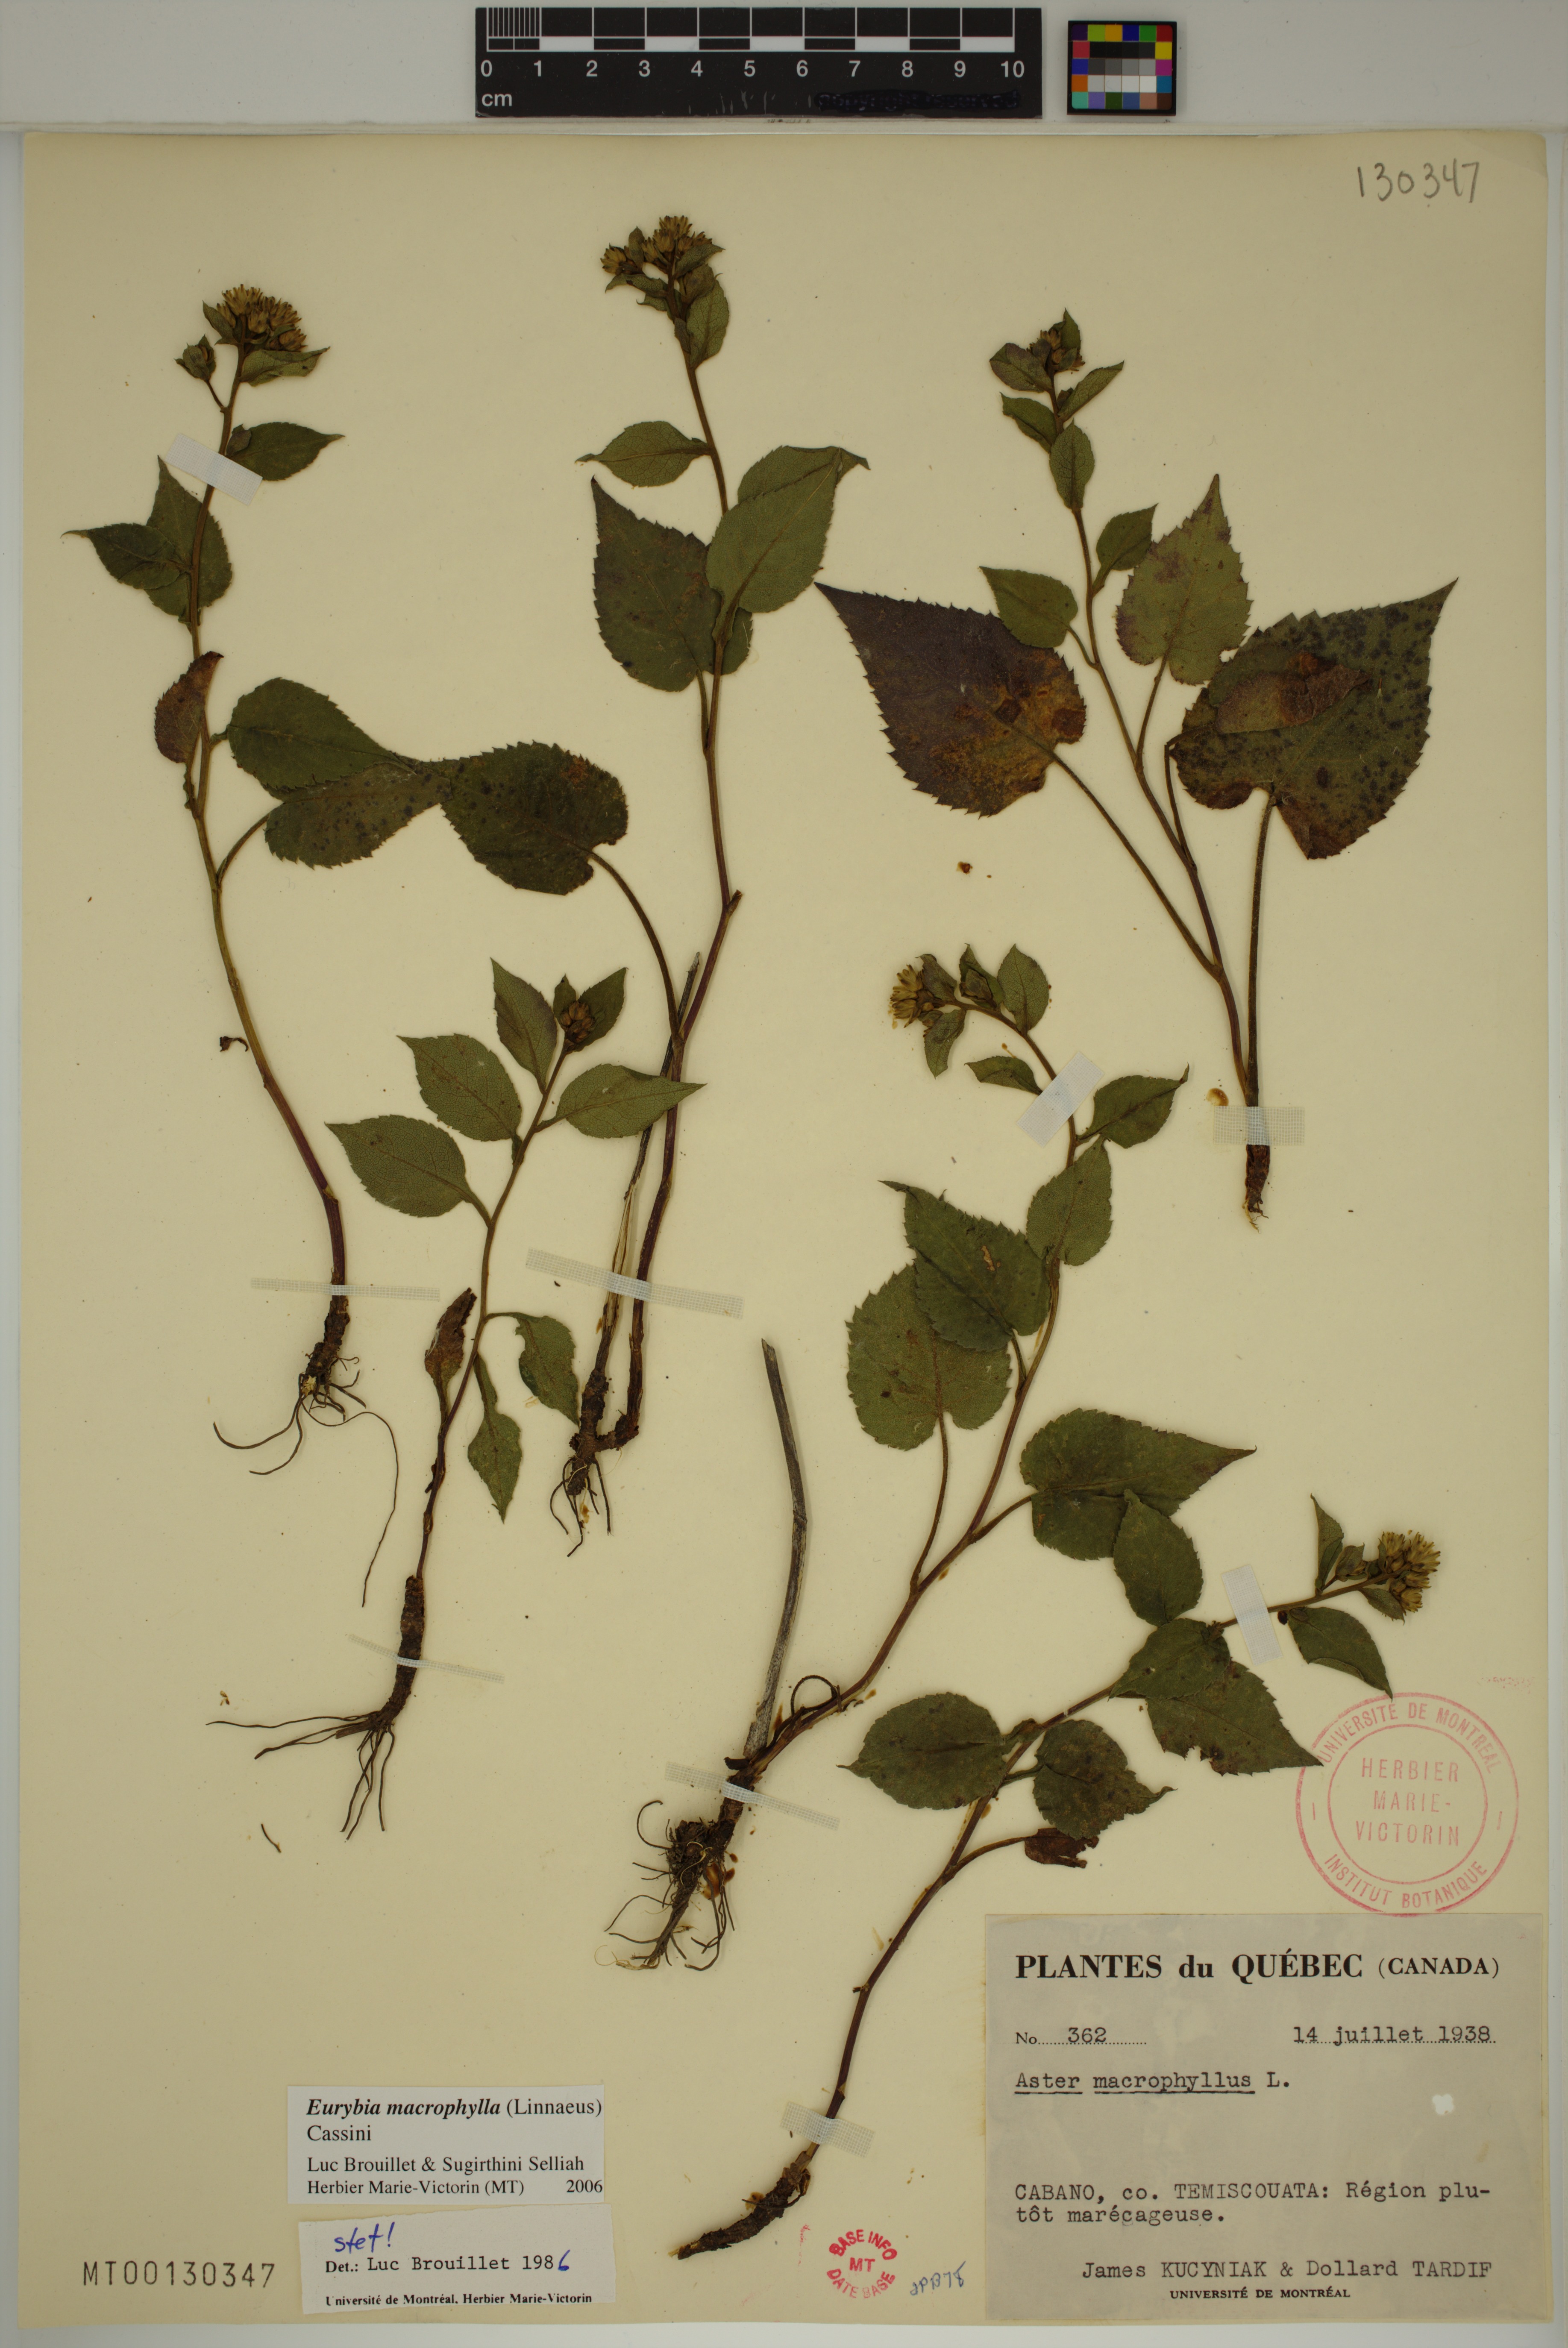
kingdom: Plantae
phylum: Tracheophyta
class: Magnoliopsida
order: Asterales
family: Asteraceae
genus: Eurybia
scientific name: Eurybia macrophylla
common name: Big-leaved aster
